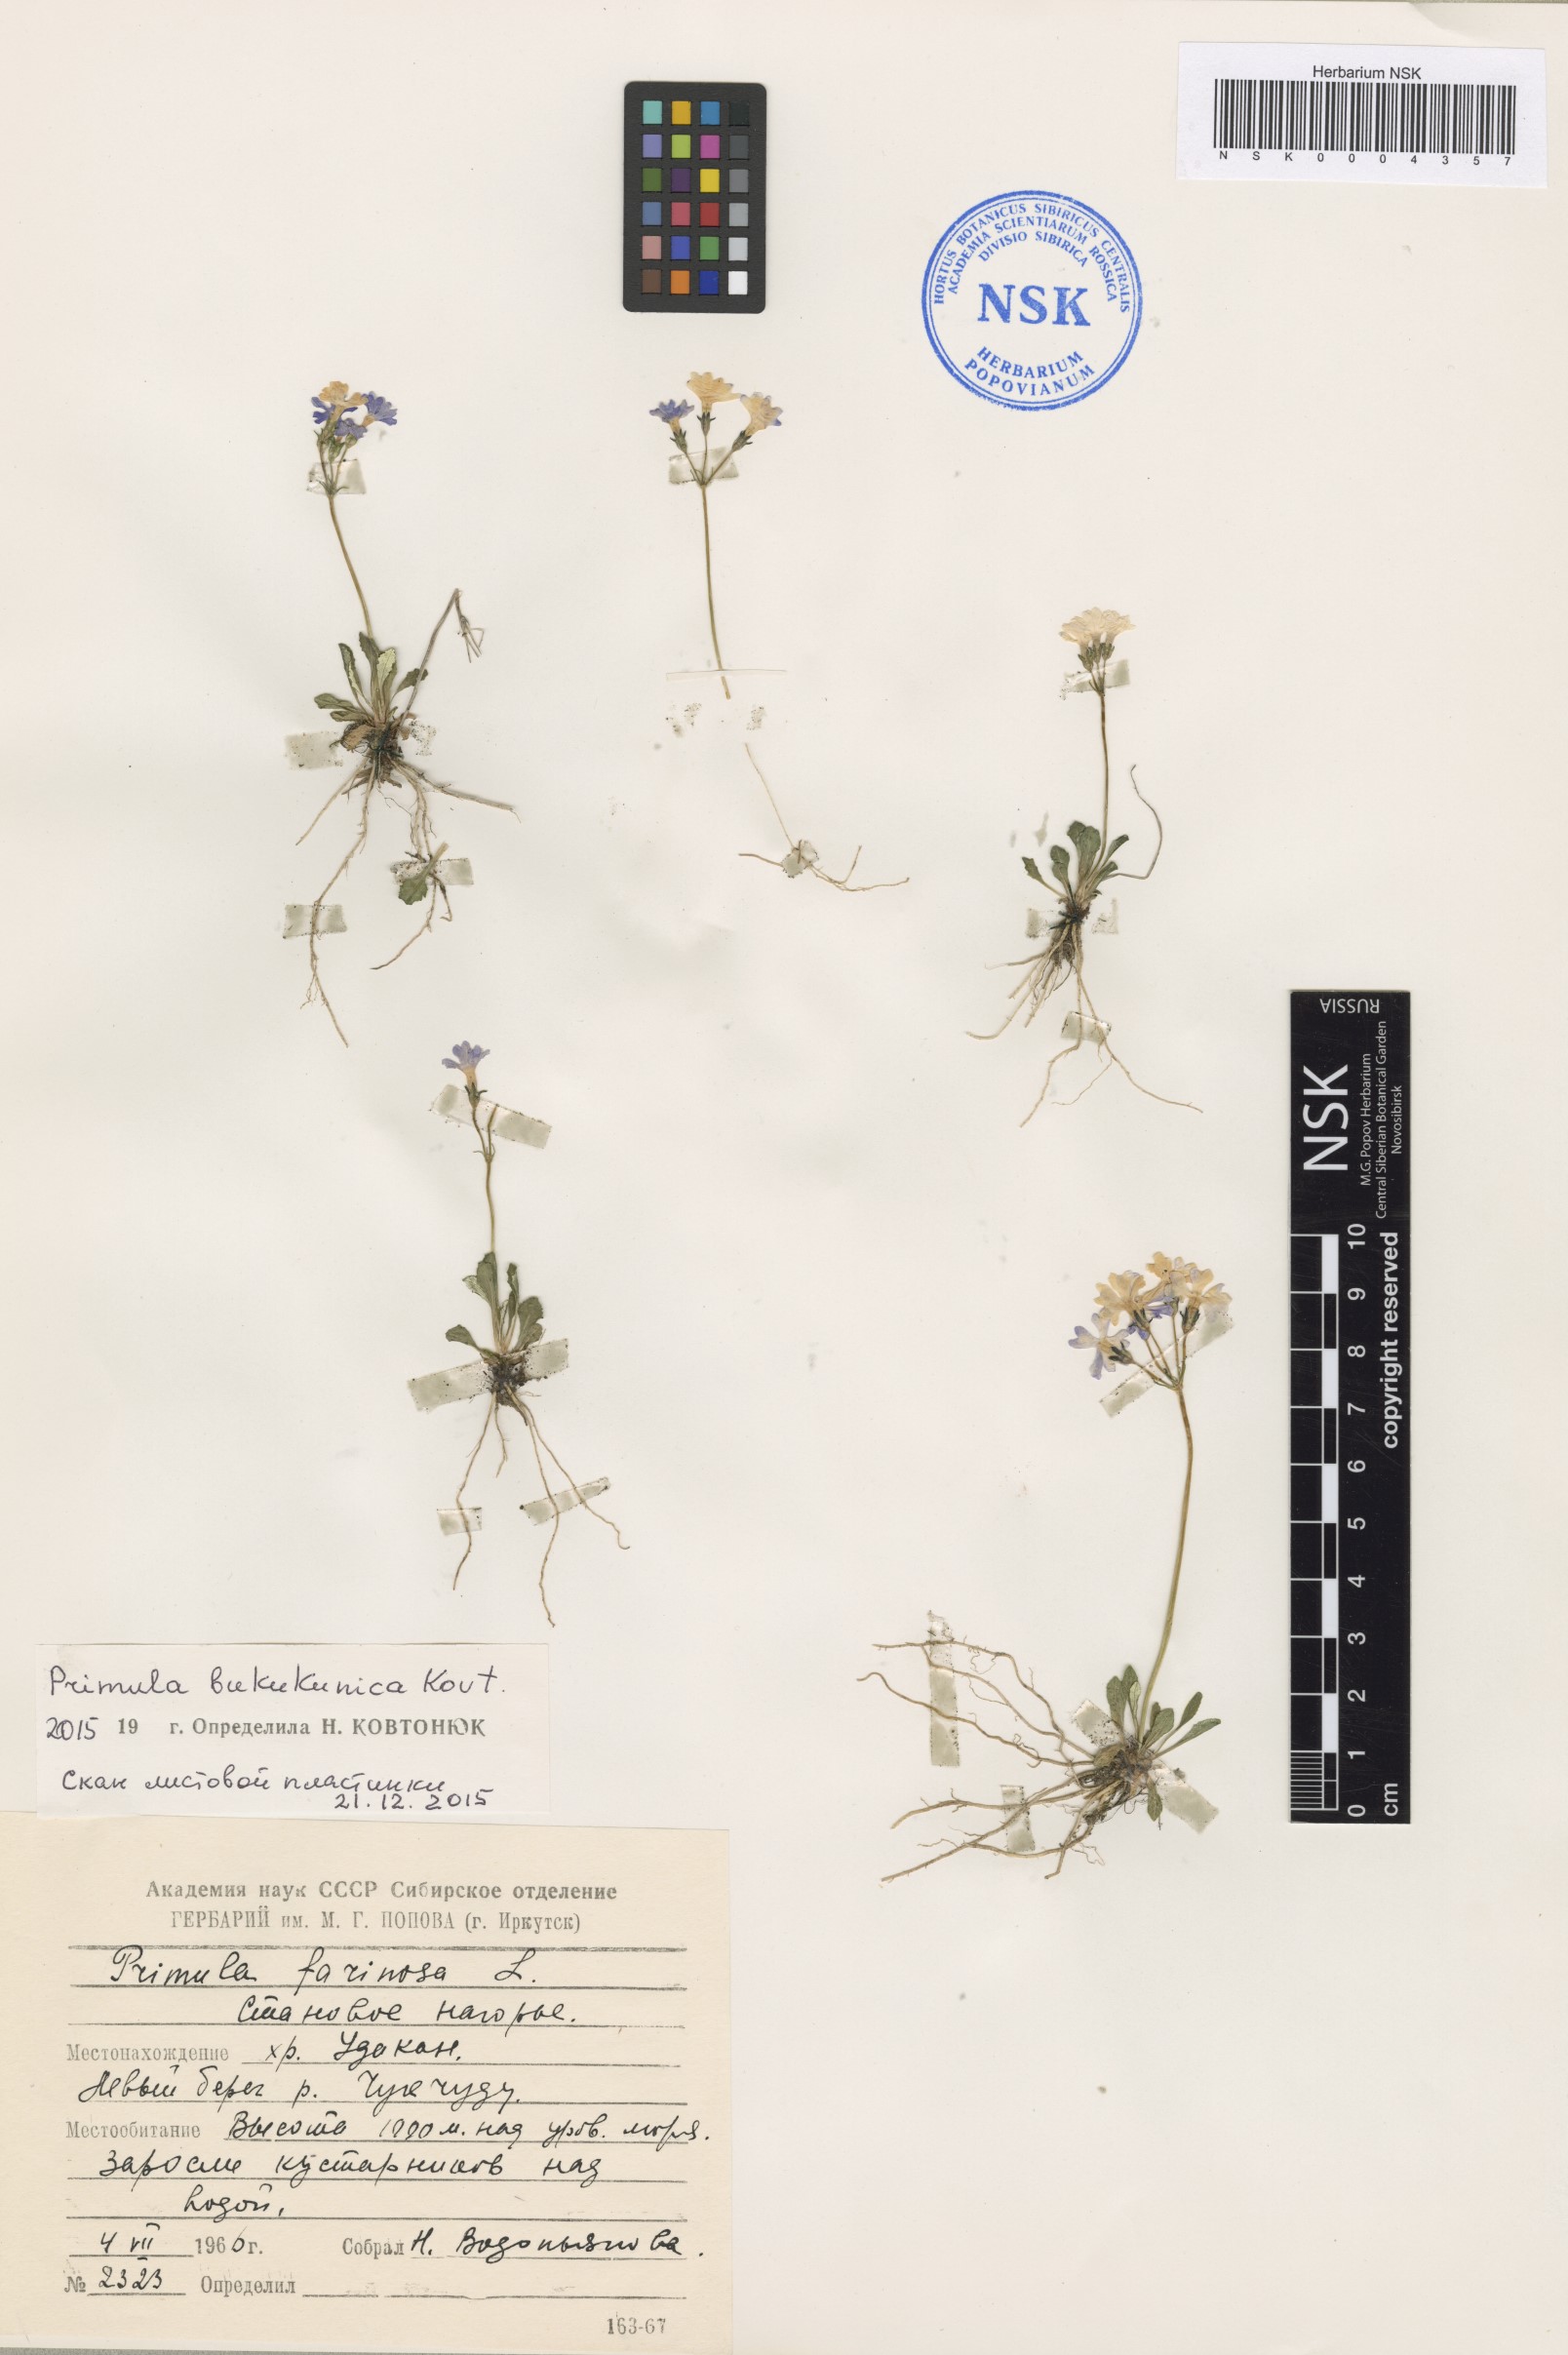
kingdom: Plantae
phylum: Tracheophyta
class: Magnoliopsida
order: Ericales
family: Primulaceae
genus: Primula
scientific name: Primula bukukunica
